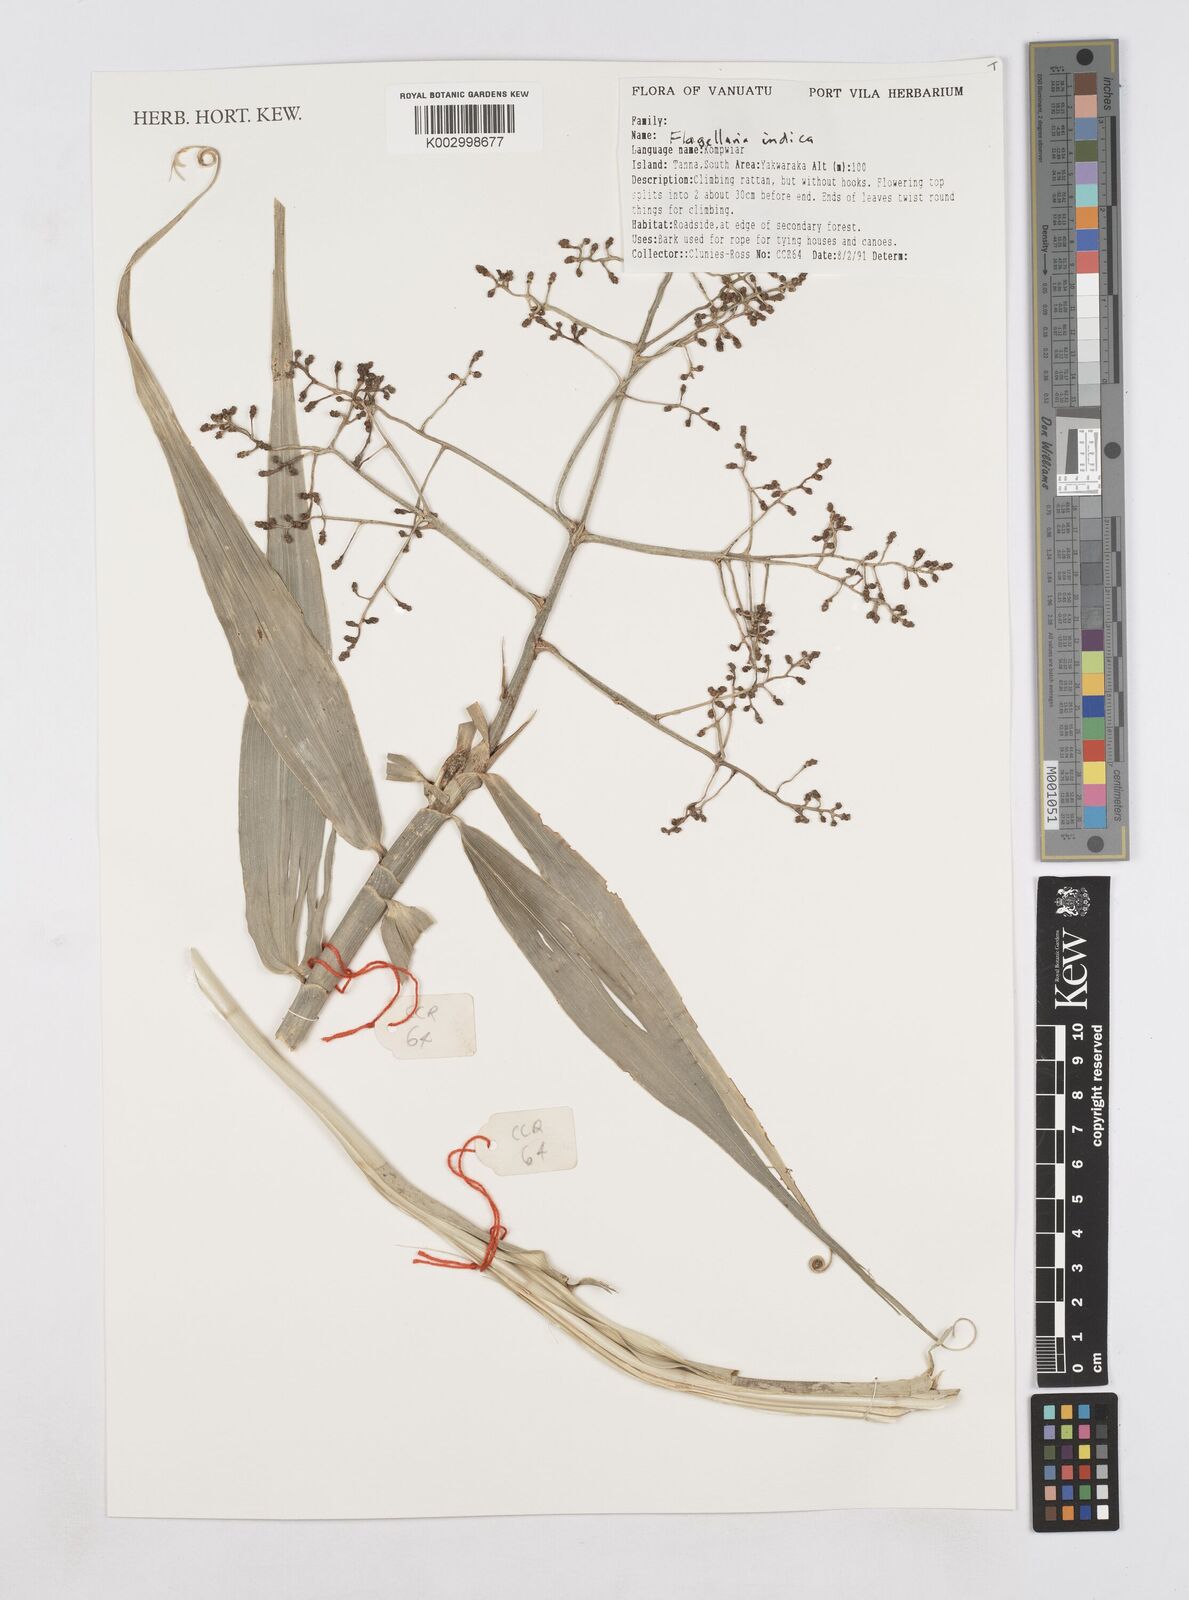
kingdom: Plantae
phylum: Tracheophyta
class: Liliopsida
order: Poales
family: Flagellariaceae
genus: Flagellaria
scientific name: Flagellaria indica
